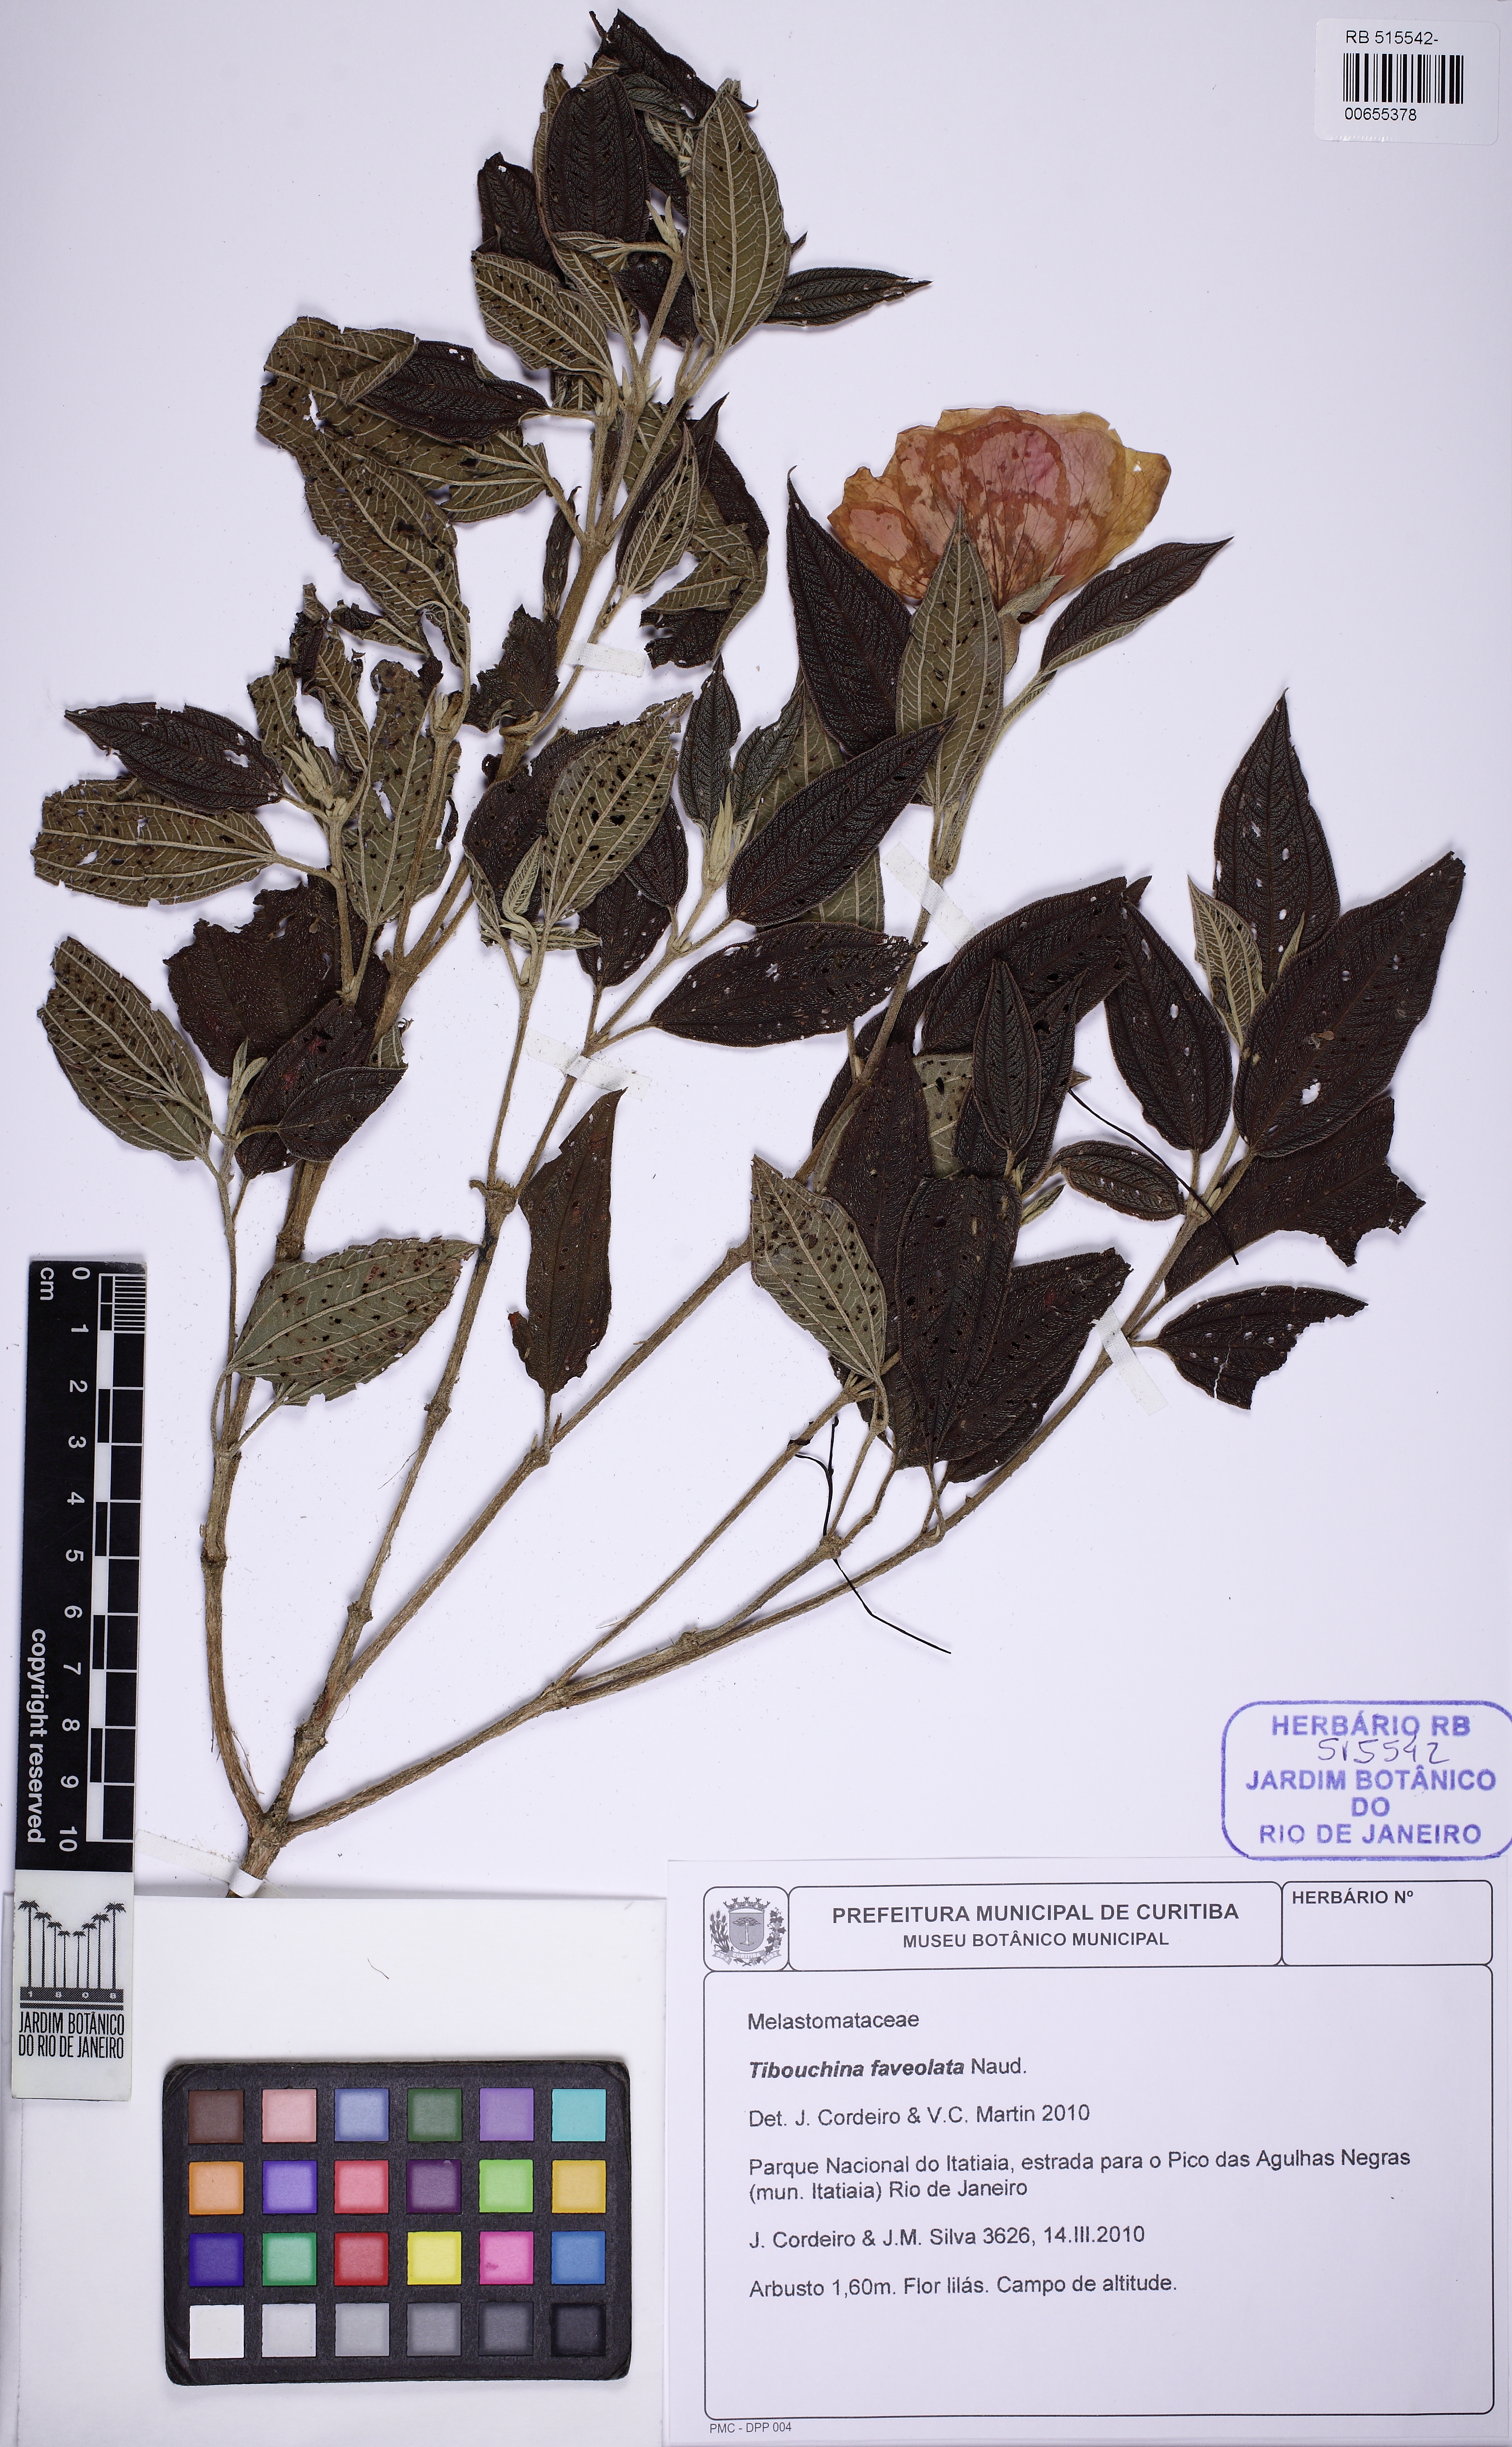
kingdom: Plantae
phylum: Tracheophyta
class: Magnoliopsida
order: Myrtales
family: Melastomataceae
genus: Pleroma
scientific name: Pleroma foveolatum
